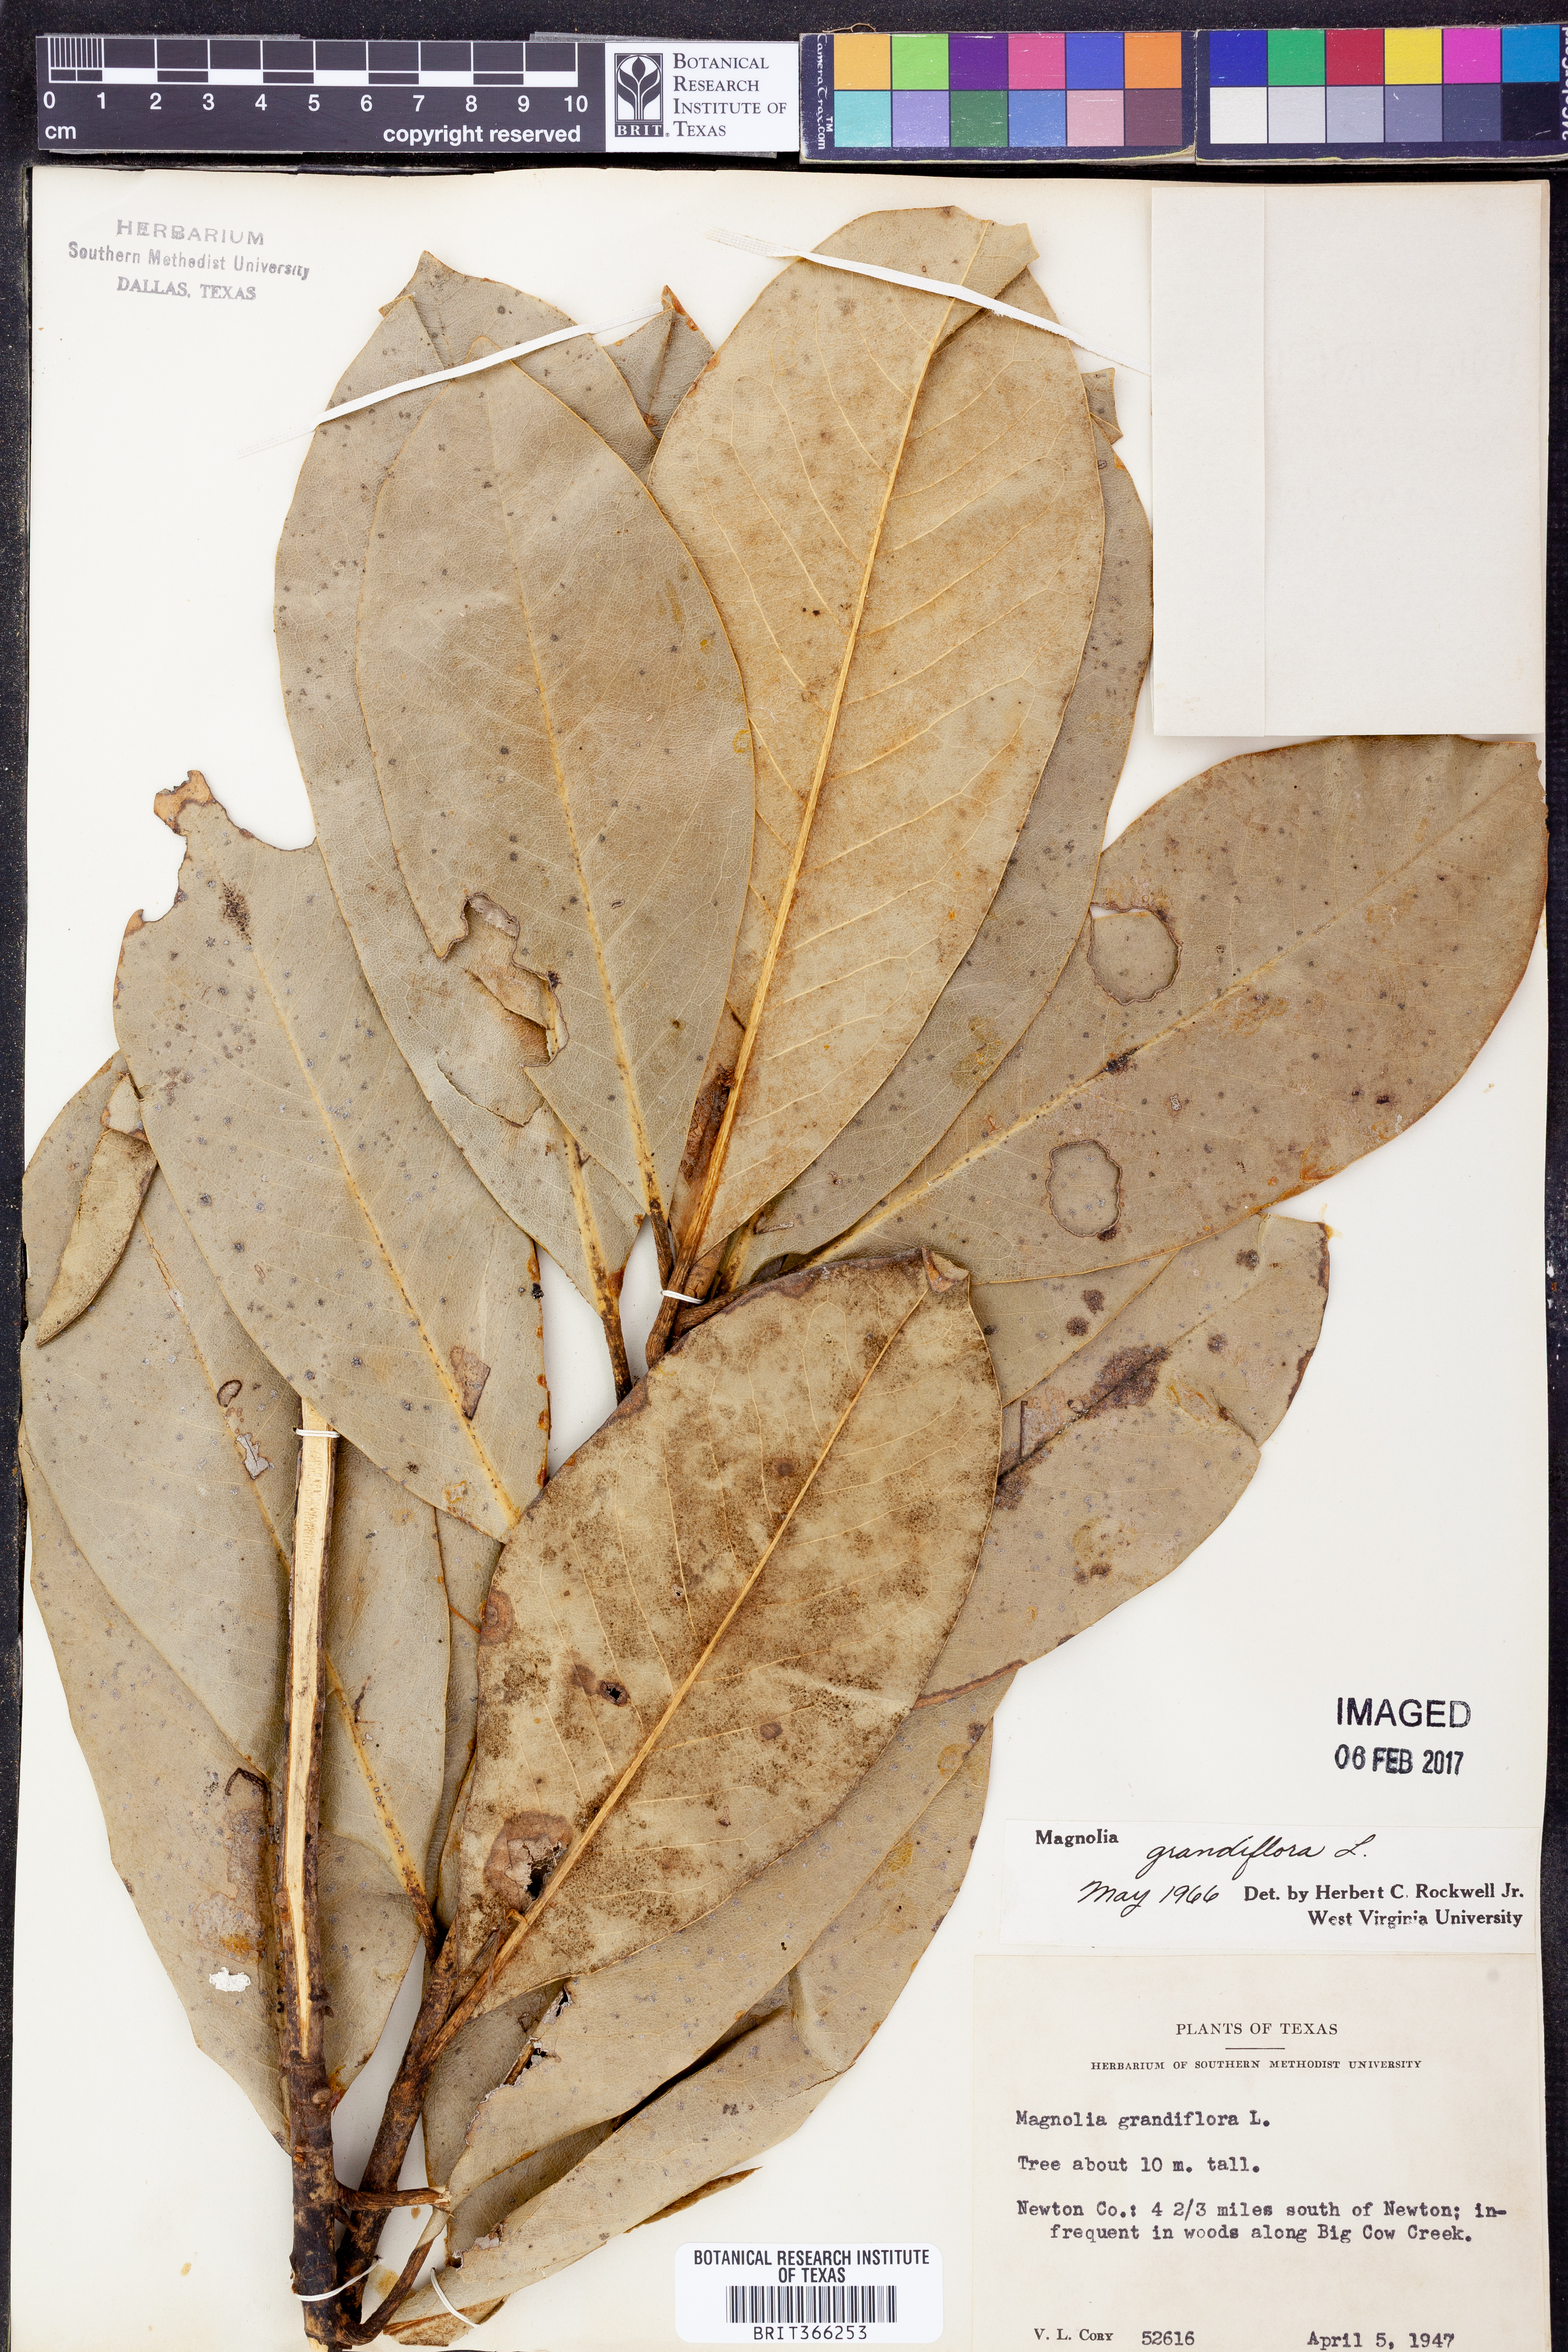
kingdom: Plantae
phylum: Tracheophyta
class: Magnoliopsida
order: Magnoliales
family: Magnoliaceae
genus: Magnolia
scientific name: Magnolia grandiflora
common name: Southern magnolia
